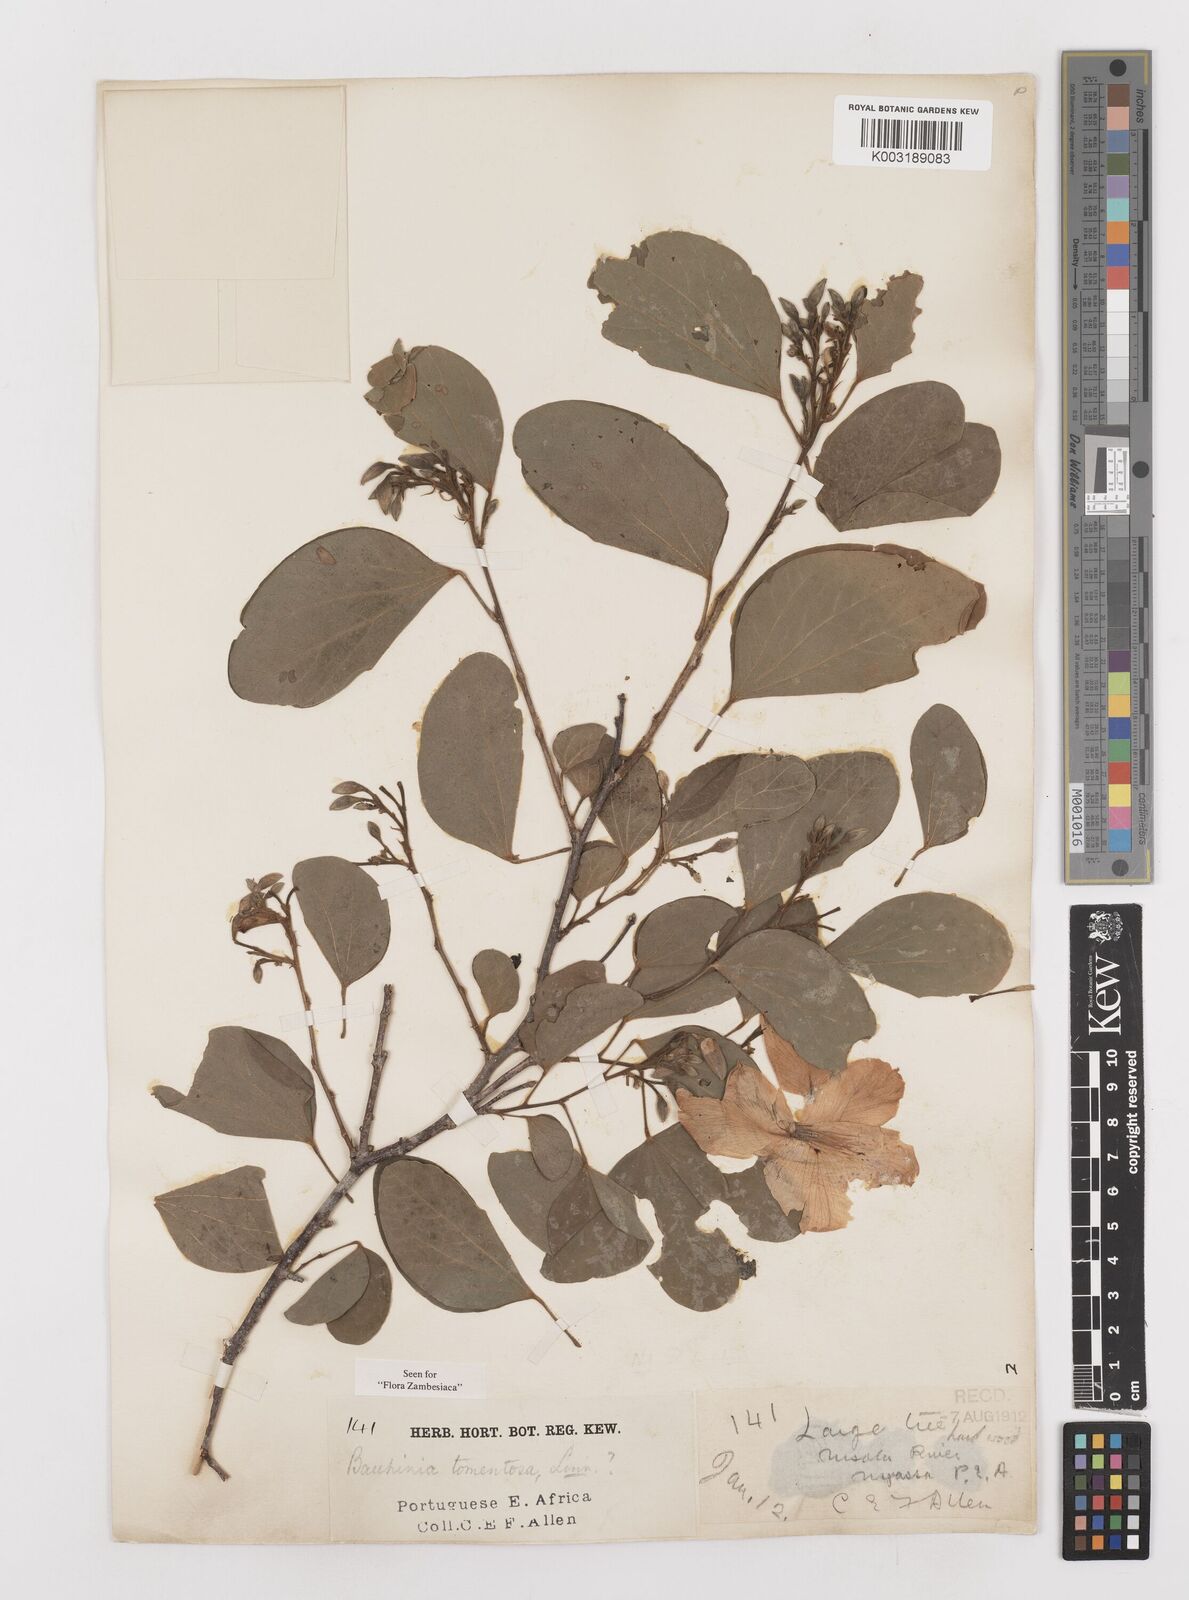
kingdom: Plantae
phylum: Tracheophyta
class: Magnoliopsida
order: Fabales
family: Fabaceae
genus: Bauhinia
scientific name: Bauhinia tomentosa
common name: Bell bauhinia
